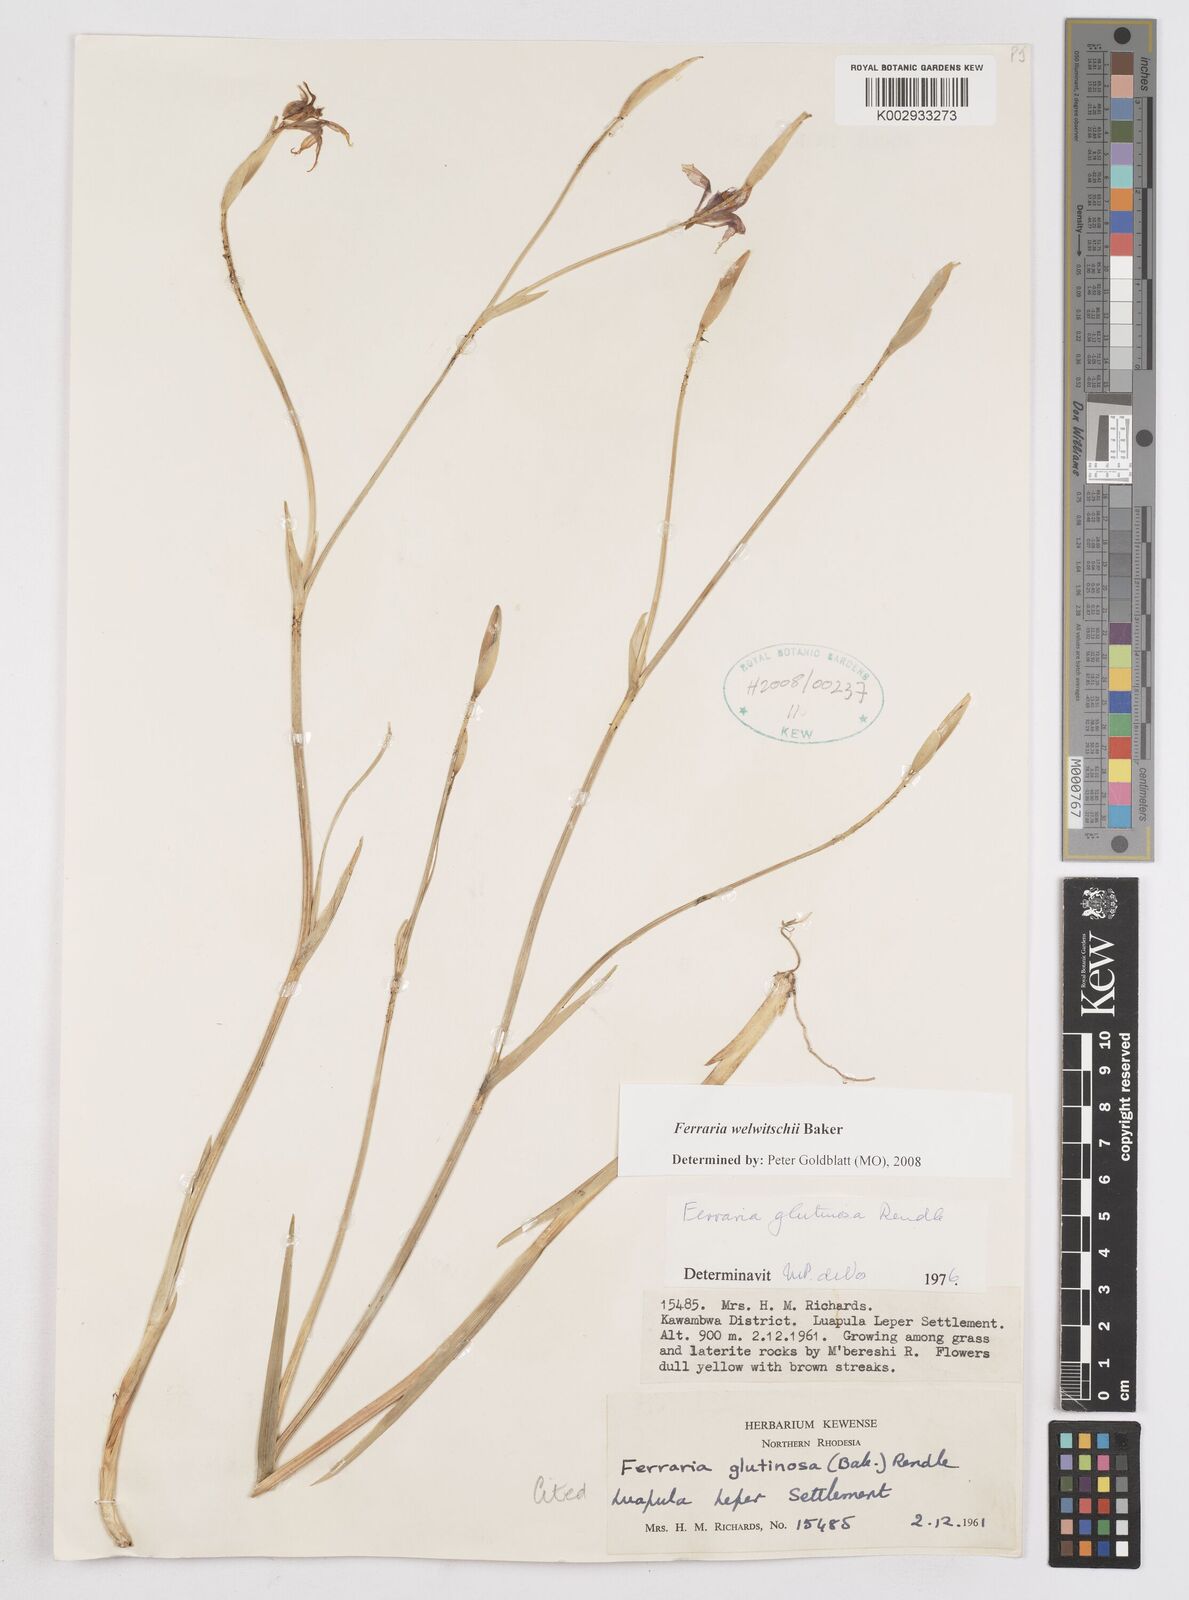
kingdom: Plantae
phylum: Tracheophyta
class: Liliopsida
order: Asparagales
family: Iridaceae
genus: Ferraria
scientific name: Ferraria welwitschii
